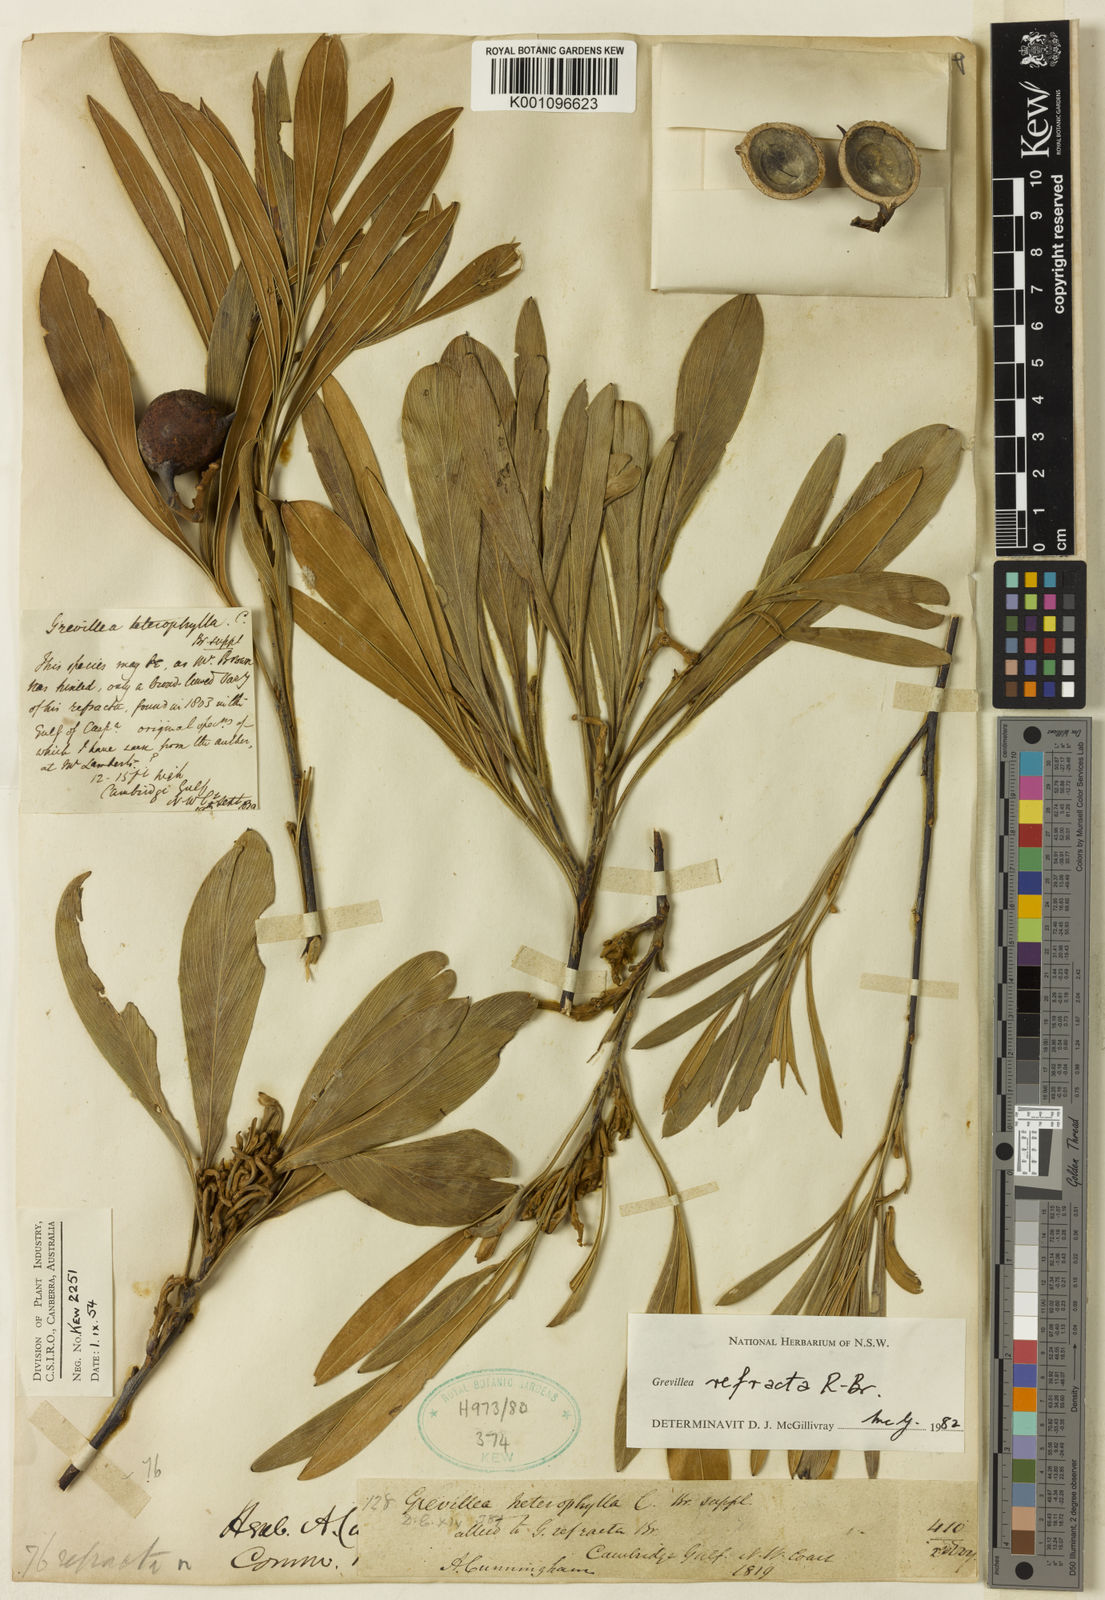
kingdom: Plantae
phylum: Tracheophyta
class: Magnoliopsida
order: Proteales
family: Proteaceae
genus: Grevillea
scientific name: Grevillea refracta
